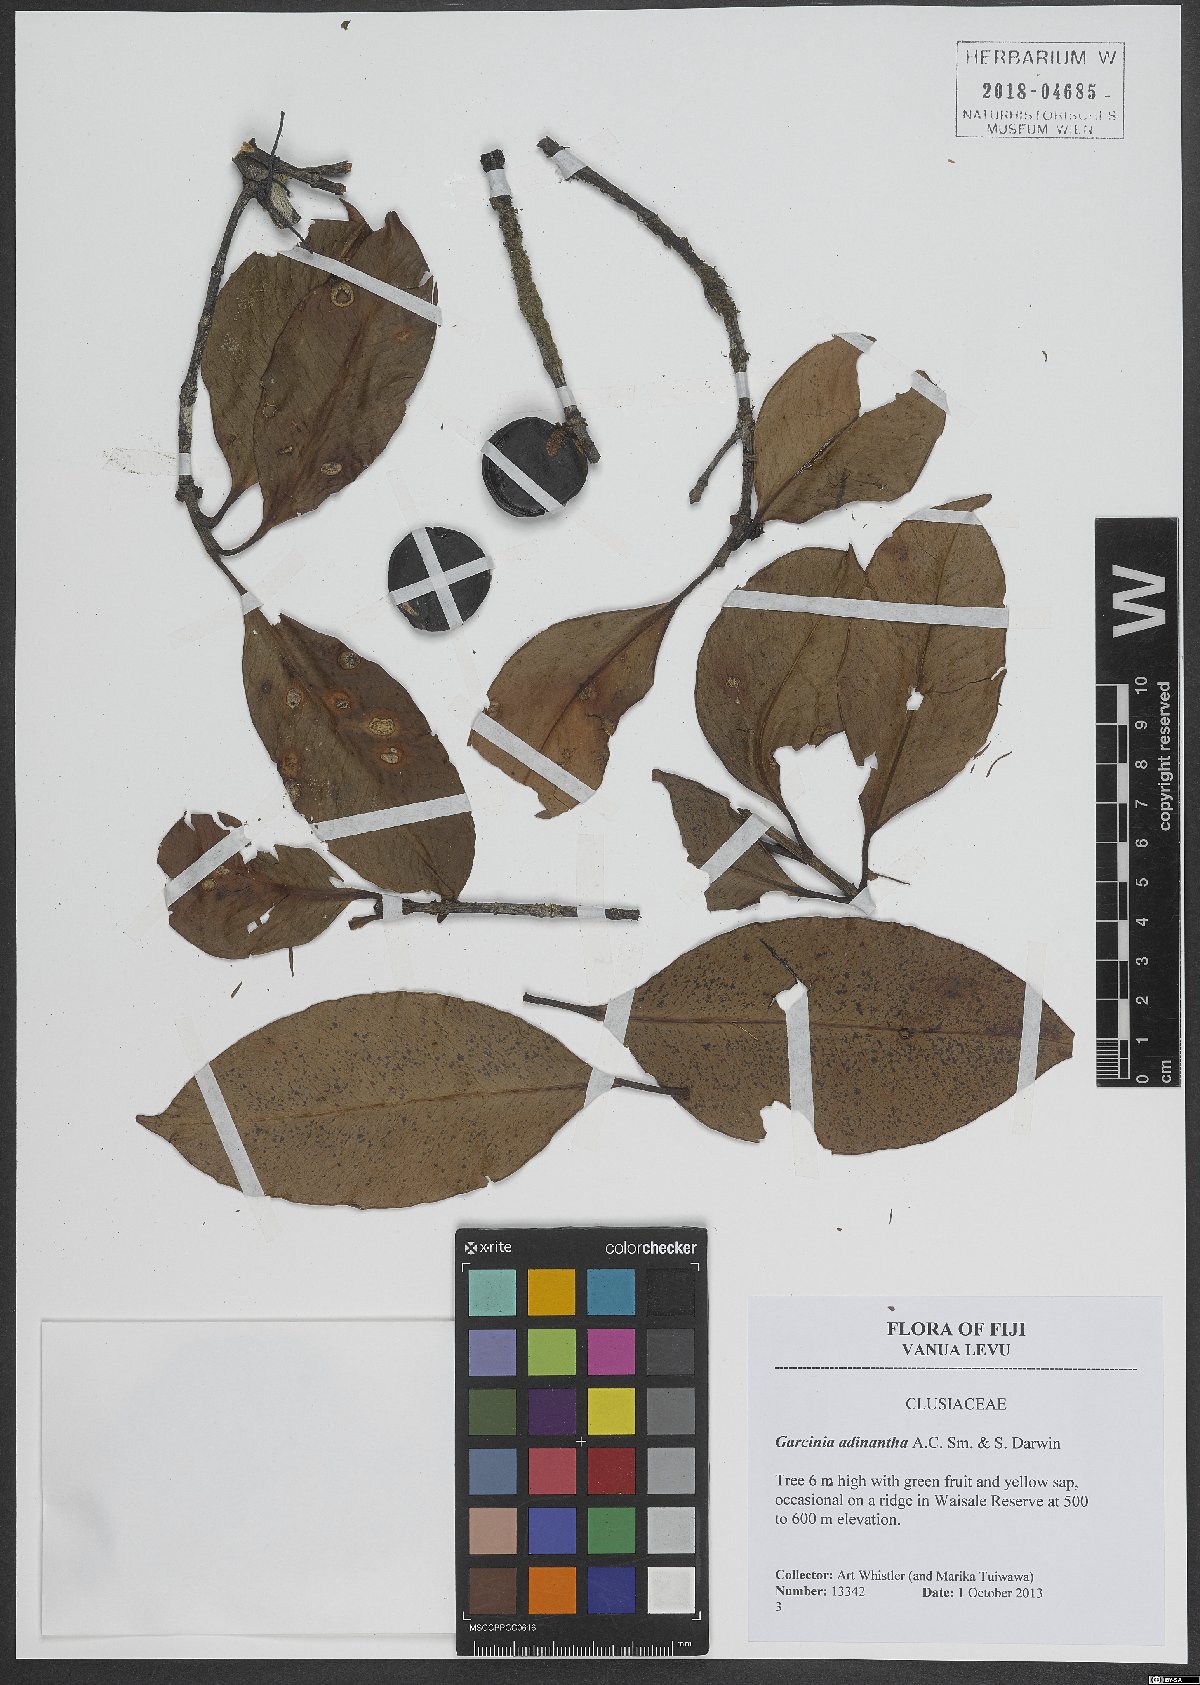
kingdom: Plantae
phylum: Tracheophyta
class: Magnoliopsida
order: Malpighiales
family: Clusiaceae
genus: Garcinia
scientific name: Garcinia adinantha
